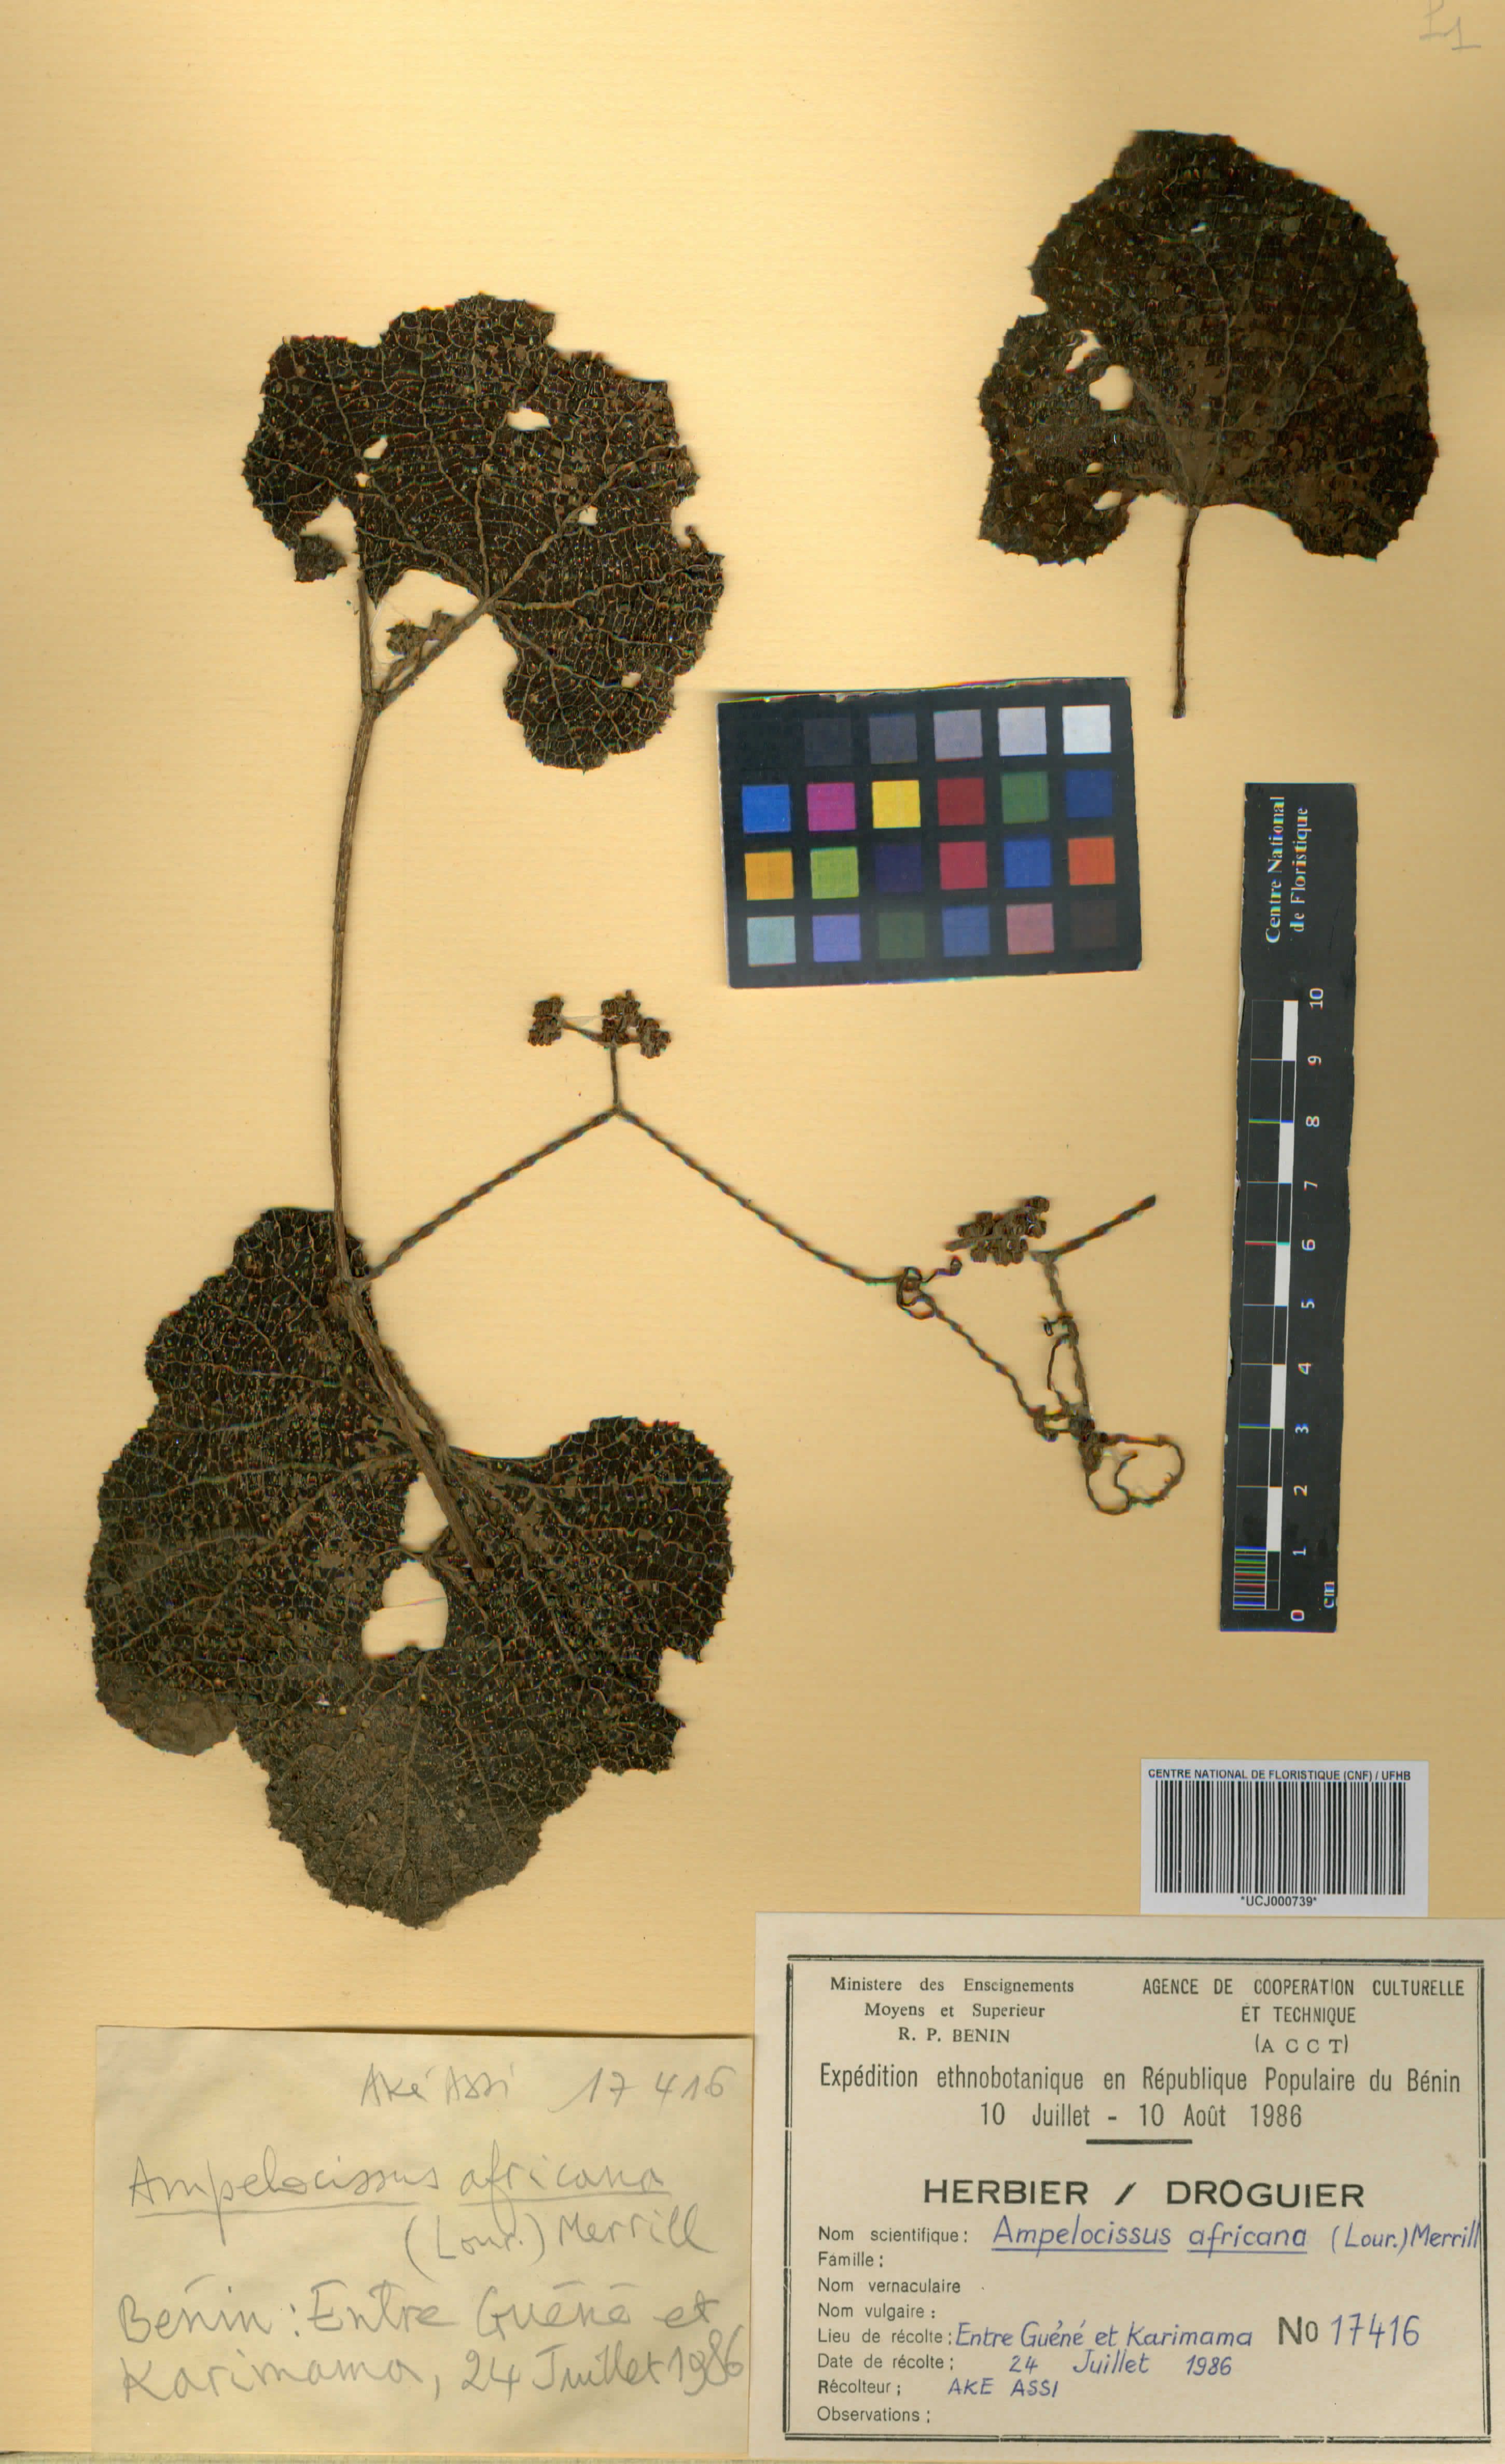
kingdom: Plantae
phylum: Tracheophyta
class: Magnoliopsida
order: Vitales
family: Vitaceae
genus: Ampelocissus
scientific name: Ampelocissus africana
